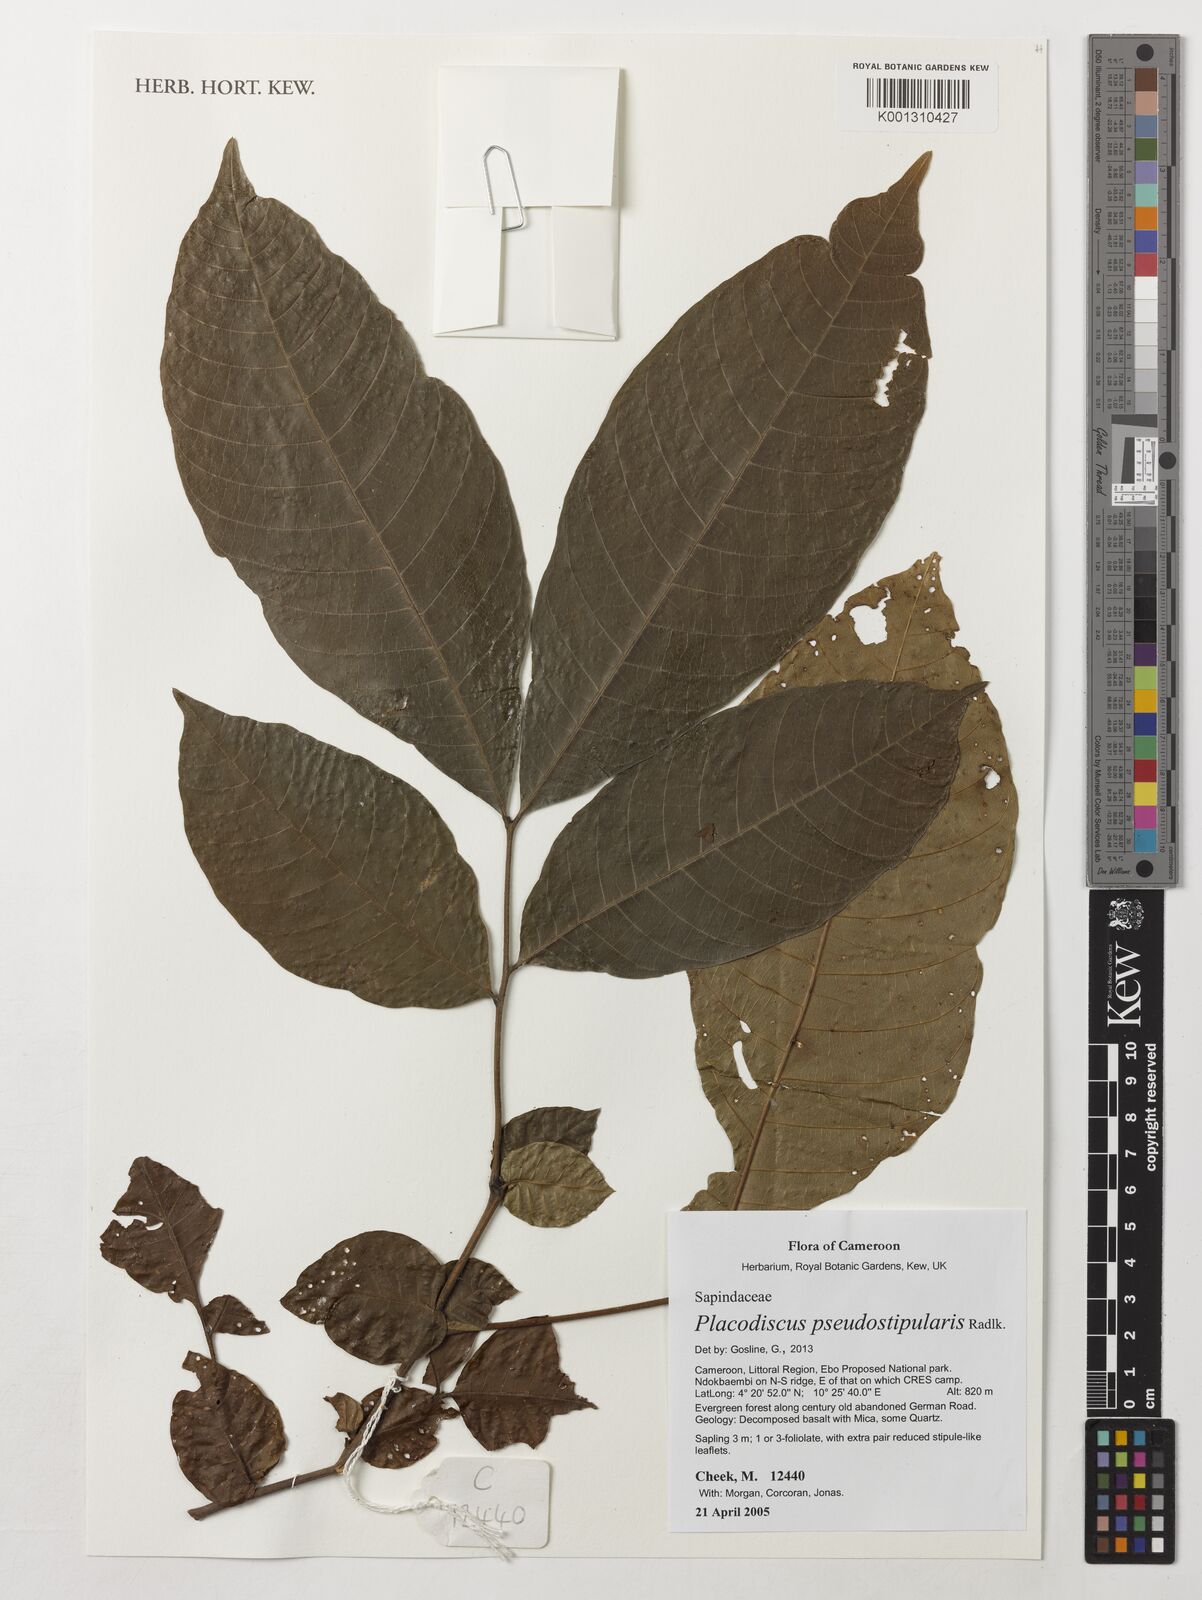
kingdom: Plantae
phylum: Tracheophyta
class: Magnoliopsida
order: Sapindales
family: Sapindaceae
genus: Placodiscus
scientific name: Placodiscus pseudostipularis
